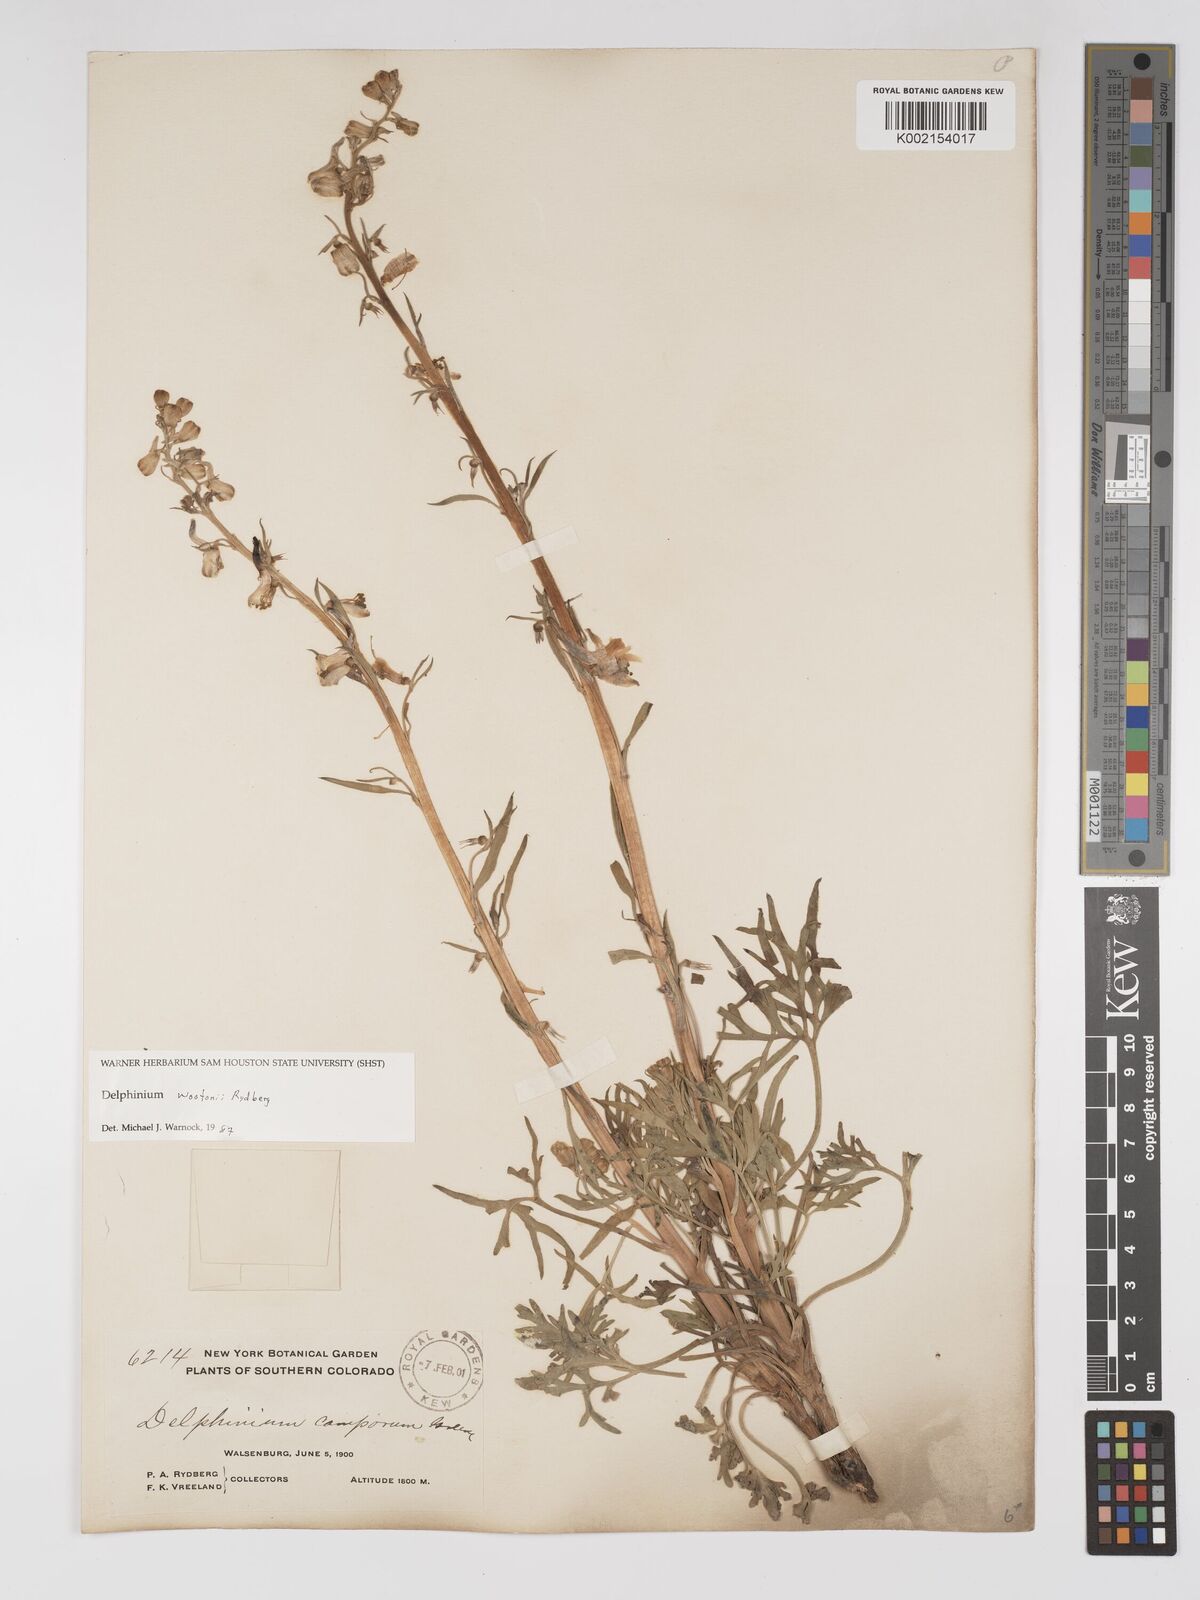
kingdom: Plantae
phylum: Tracheophyta
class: Magnoliopsida
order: Ranunculales
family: Ranunculaceae
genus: Delphinium
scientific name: Delphinium wootonii
